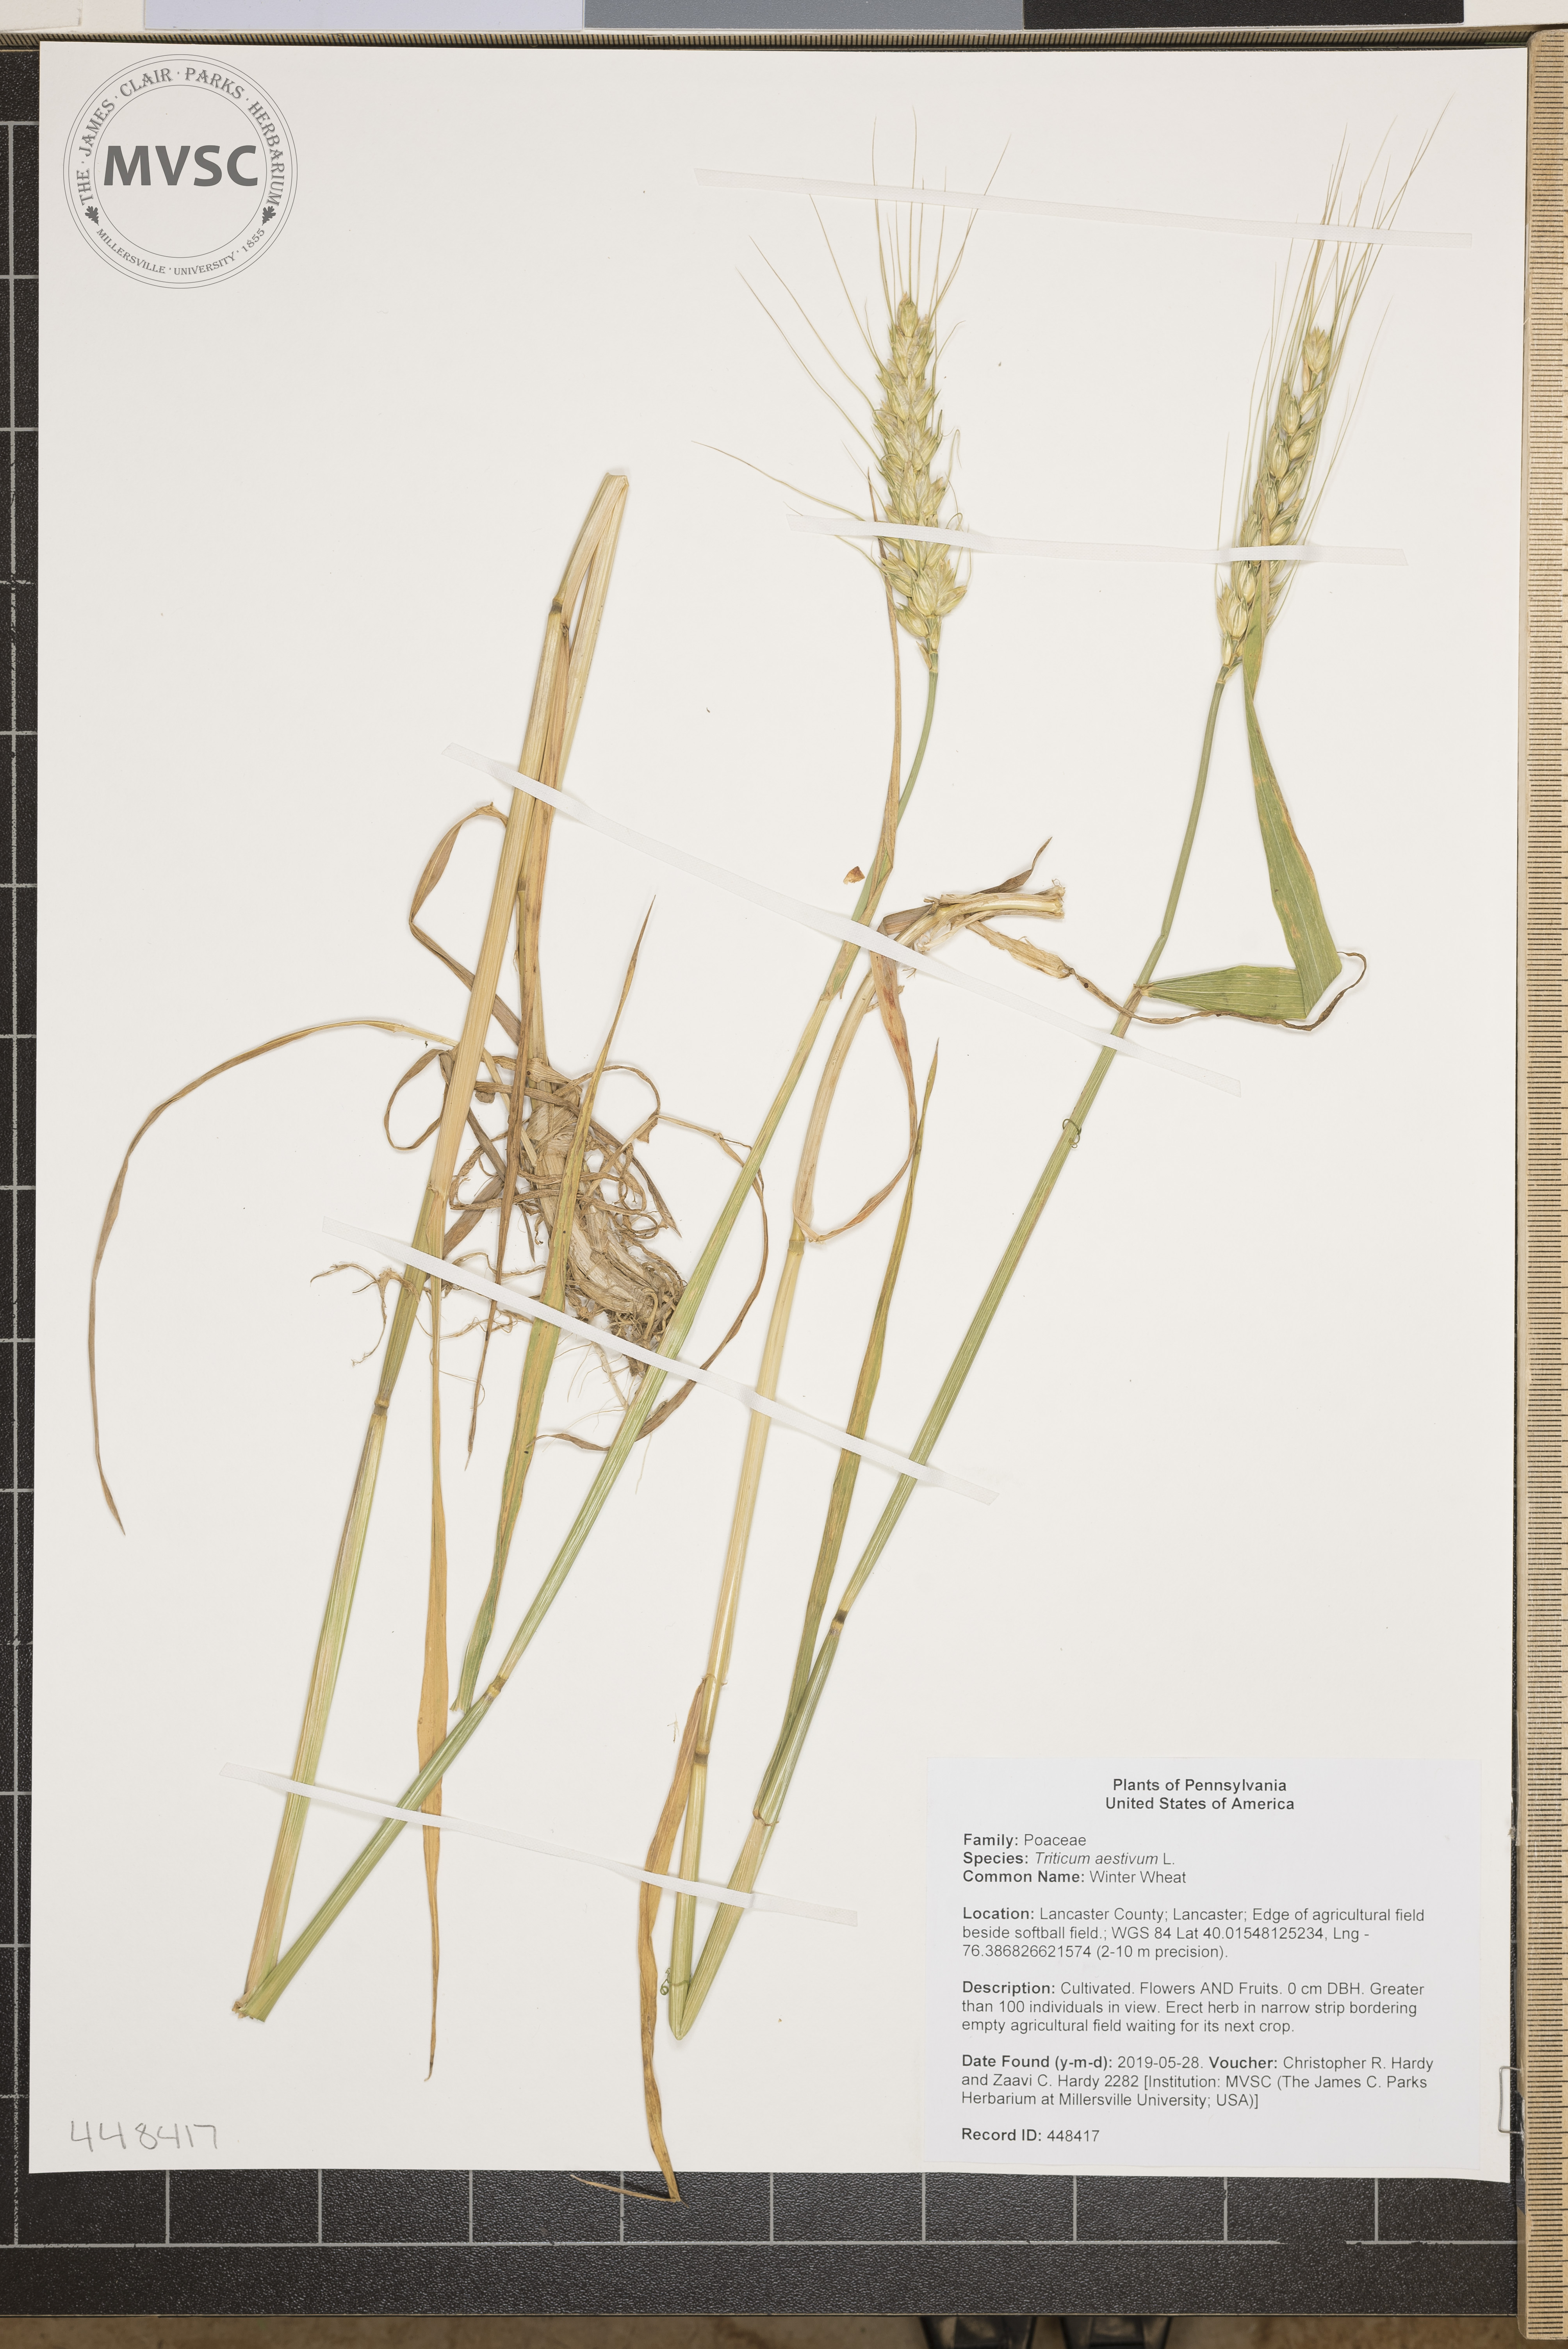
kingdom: Plantae
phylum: Tracheophyta
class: Liliopsida
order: Poales
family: Poaceae
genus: Triticum
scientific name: Triticum aestivum
